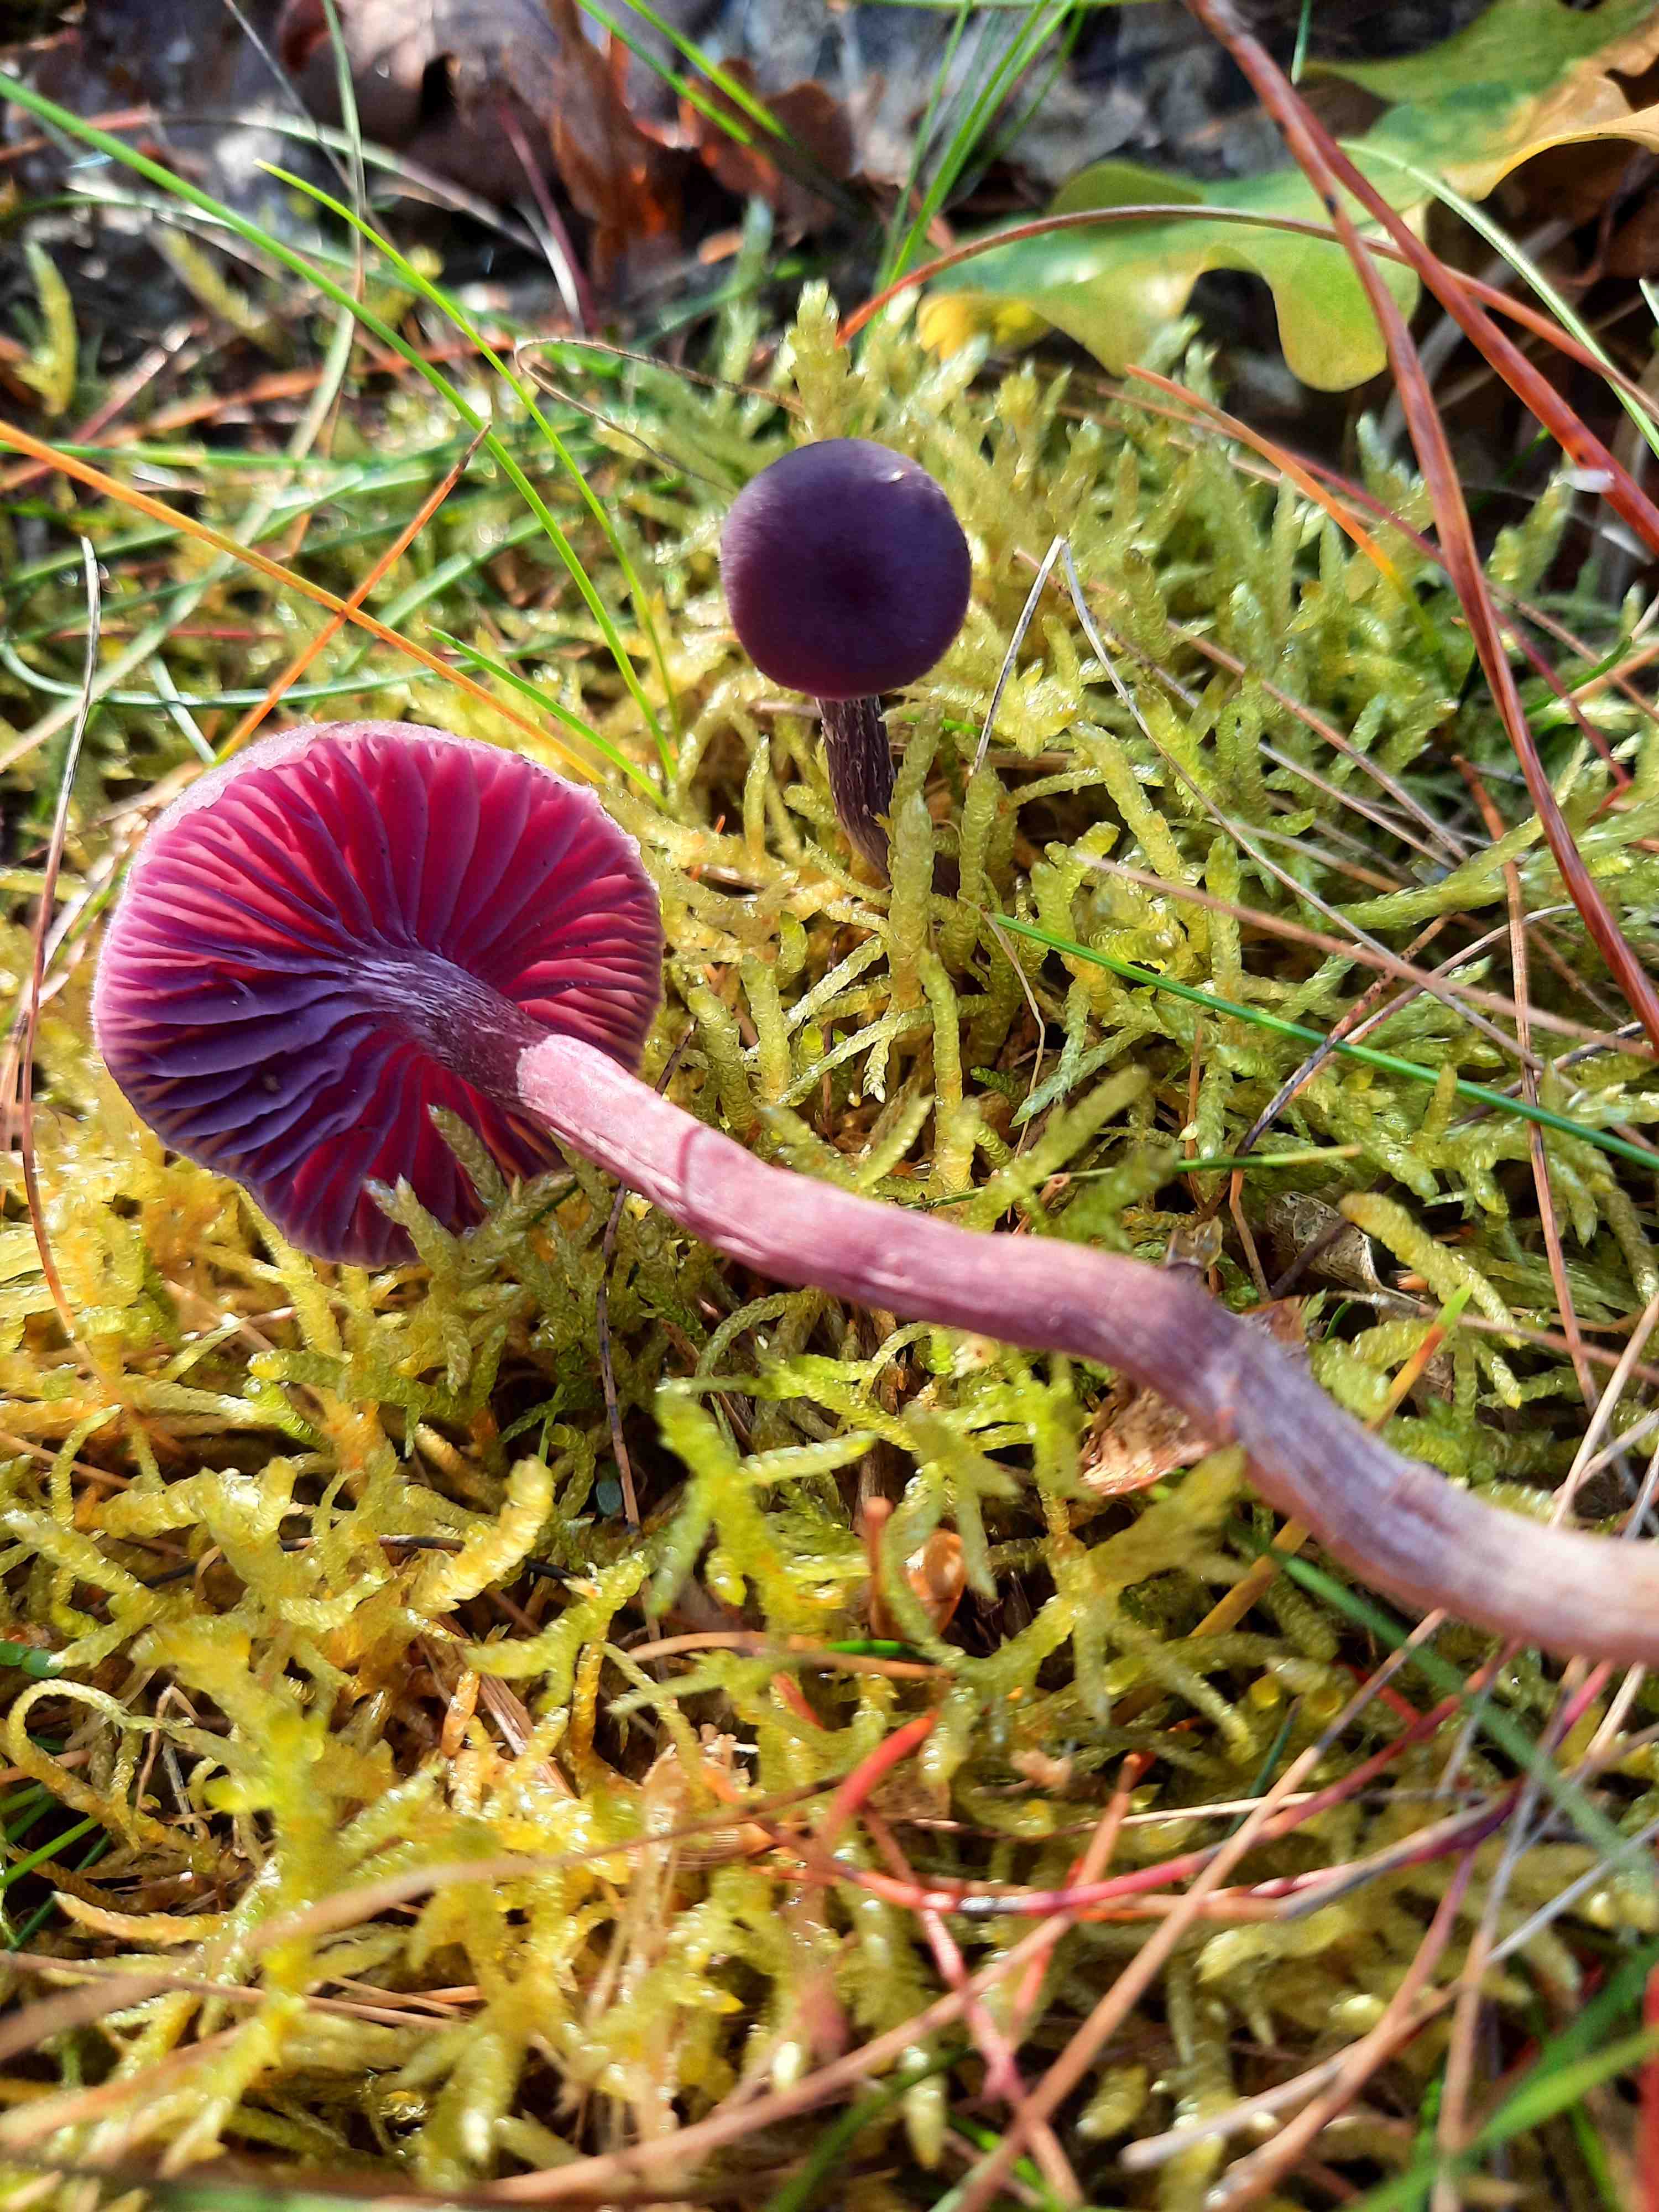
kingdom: Fungi
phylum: Basidiomycota
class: Agaricomycetes
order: Agaricales
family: Hydnangiaceae
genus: Laccaria
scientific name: Laccaria amethystina
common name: violet ametysthat
